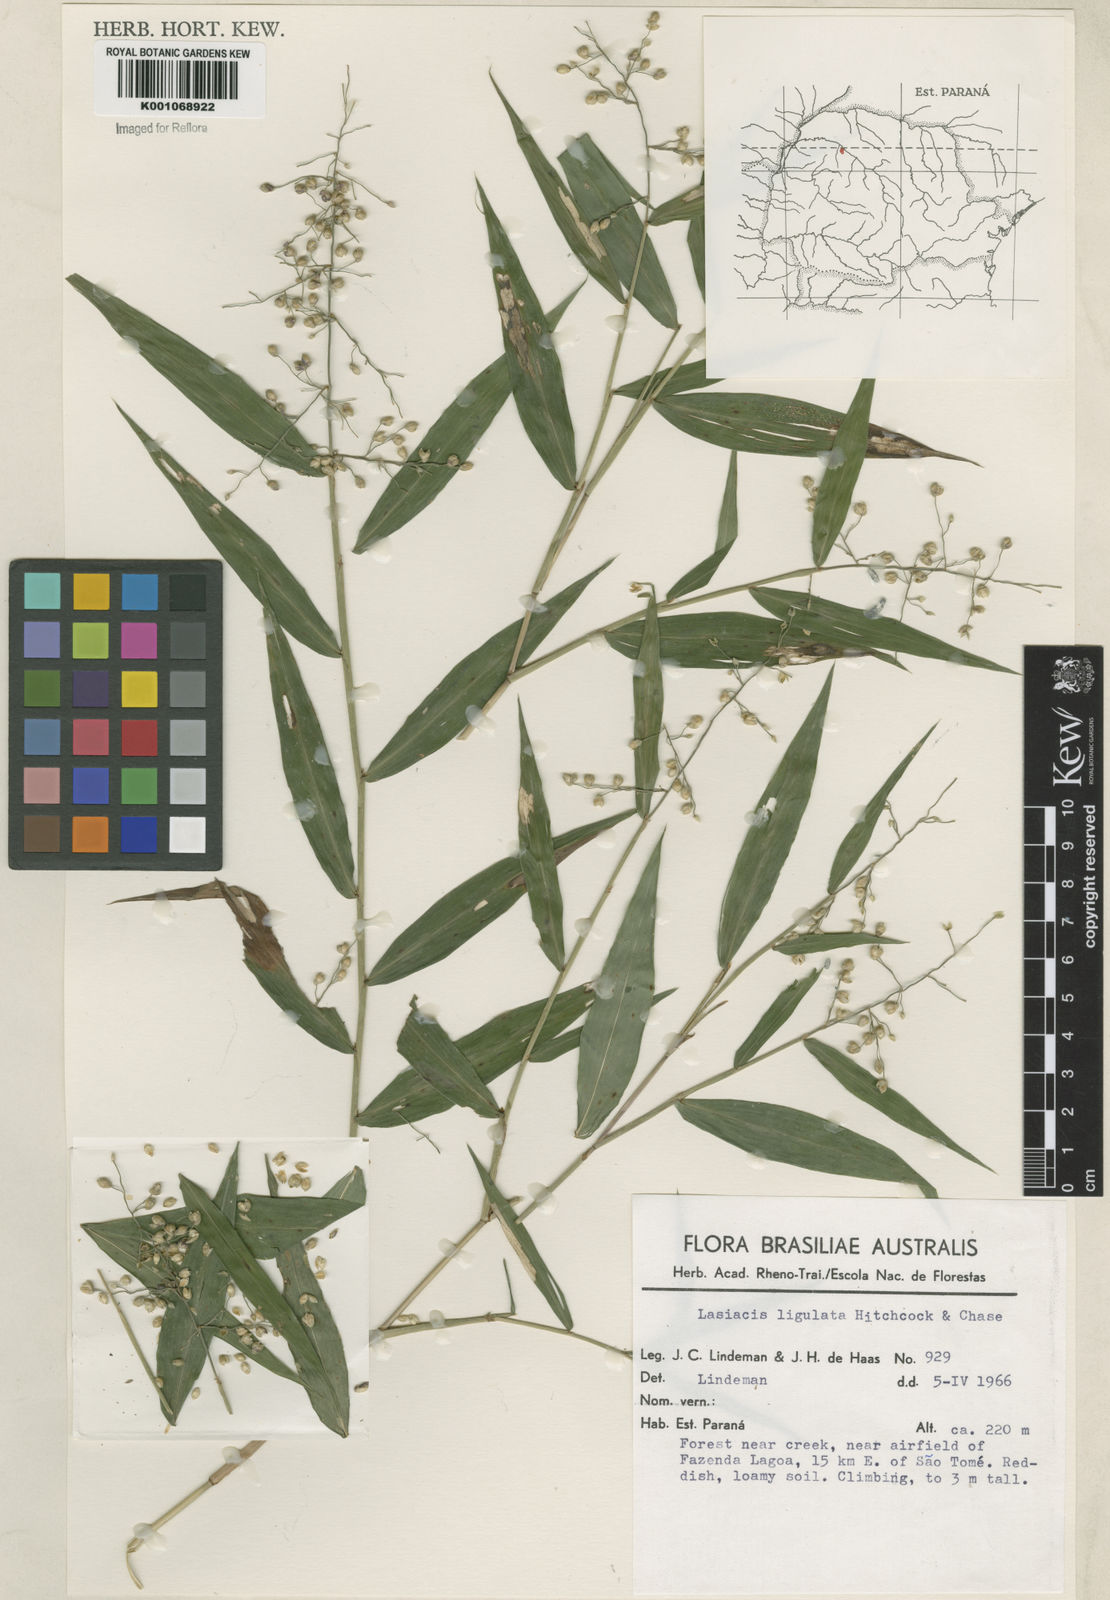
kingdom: Plantae
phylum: Tracheophyta
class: Liliopsida
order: Poales
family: Poaceae
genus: Lasiacis
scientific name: Lasiacis ligulata
